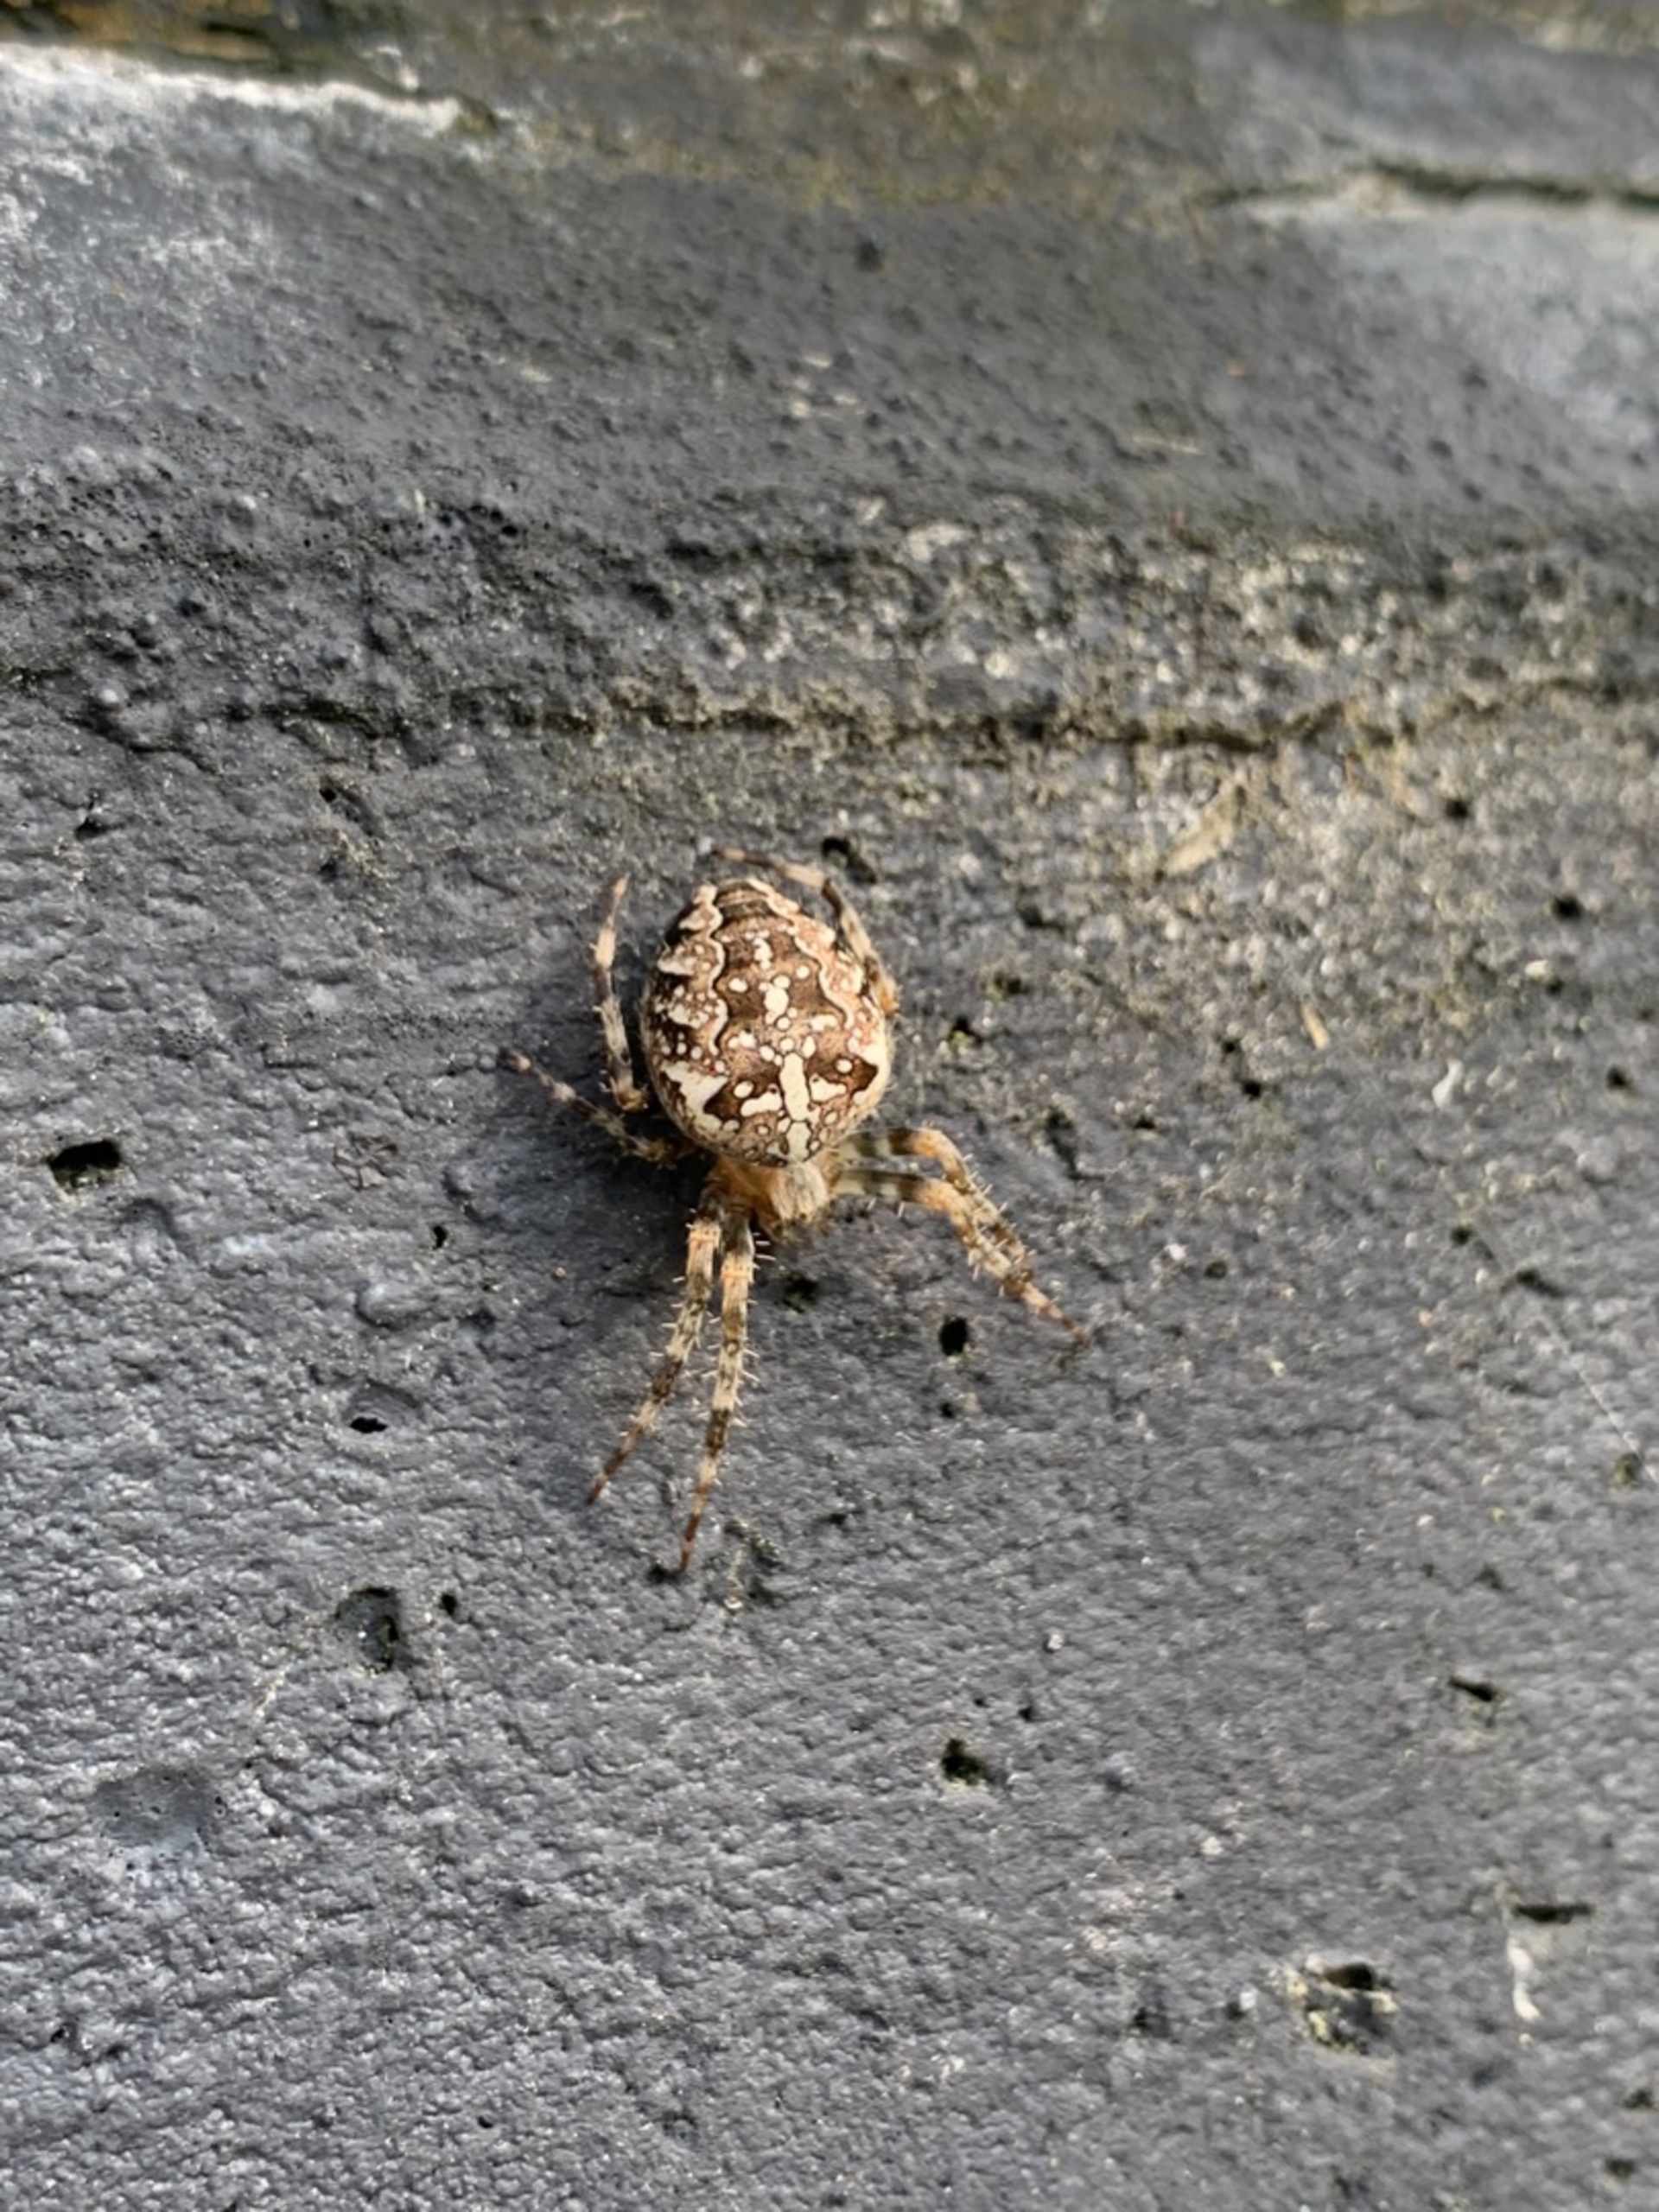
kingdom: Animalia
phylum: Arthropoda
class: Arachnida
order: Araneae
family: Araneidae
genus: Araneus
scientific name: Araneus diadematus
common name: Korsedderkop
